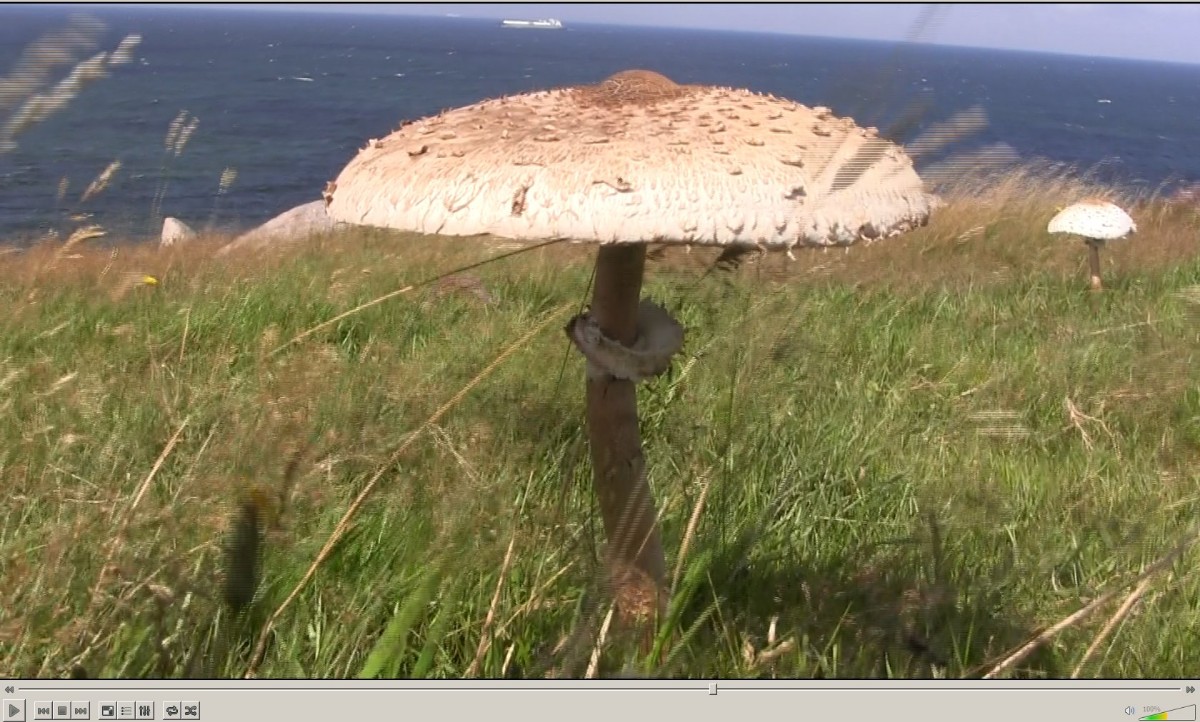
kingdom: Fungi
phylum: Basidiomycota
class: Agaricomycetes
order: Agaricales
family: Agaricaceae
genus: Macrolepiota
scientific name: Macrolepiota procera
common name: stor kæmpeparasolhat
